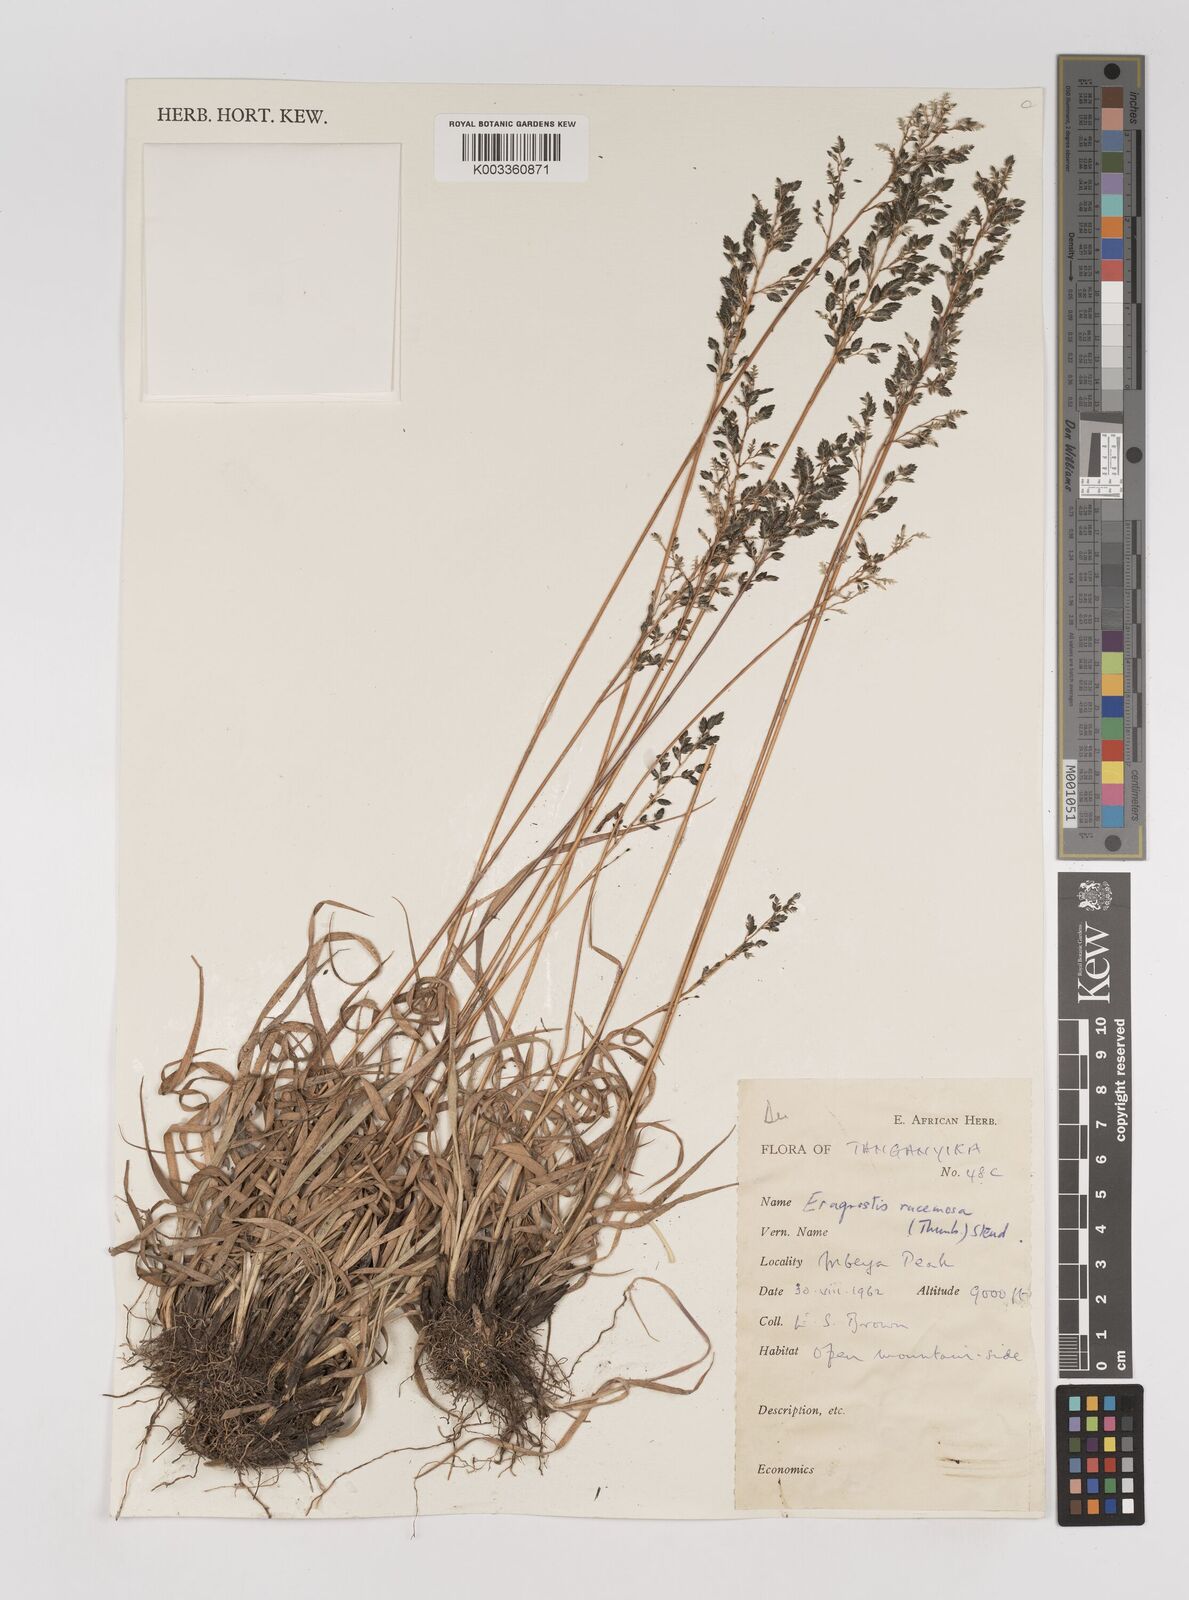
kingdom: Plantae
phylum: Tracheophyta
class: Liliopsida
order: Poales
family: Poaceae
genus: Eragrostis
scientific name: Eragrostis racemosa
